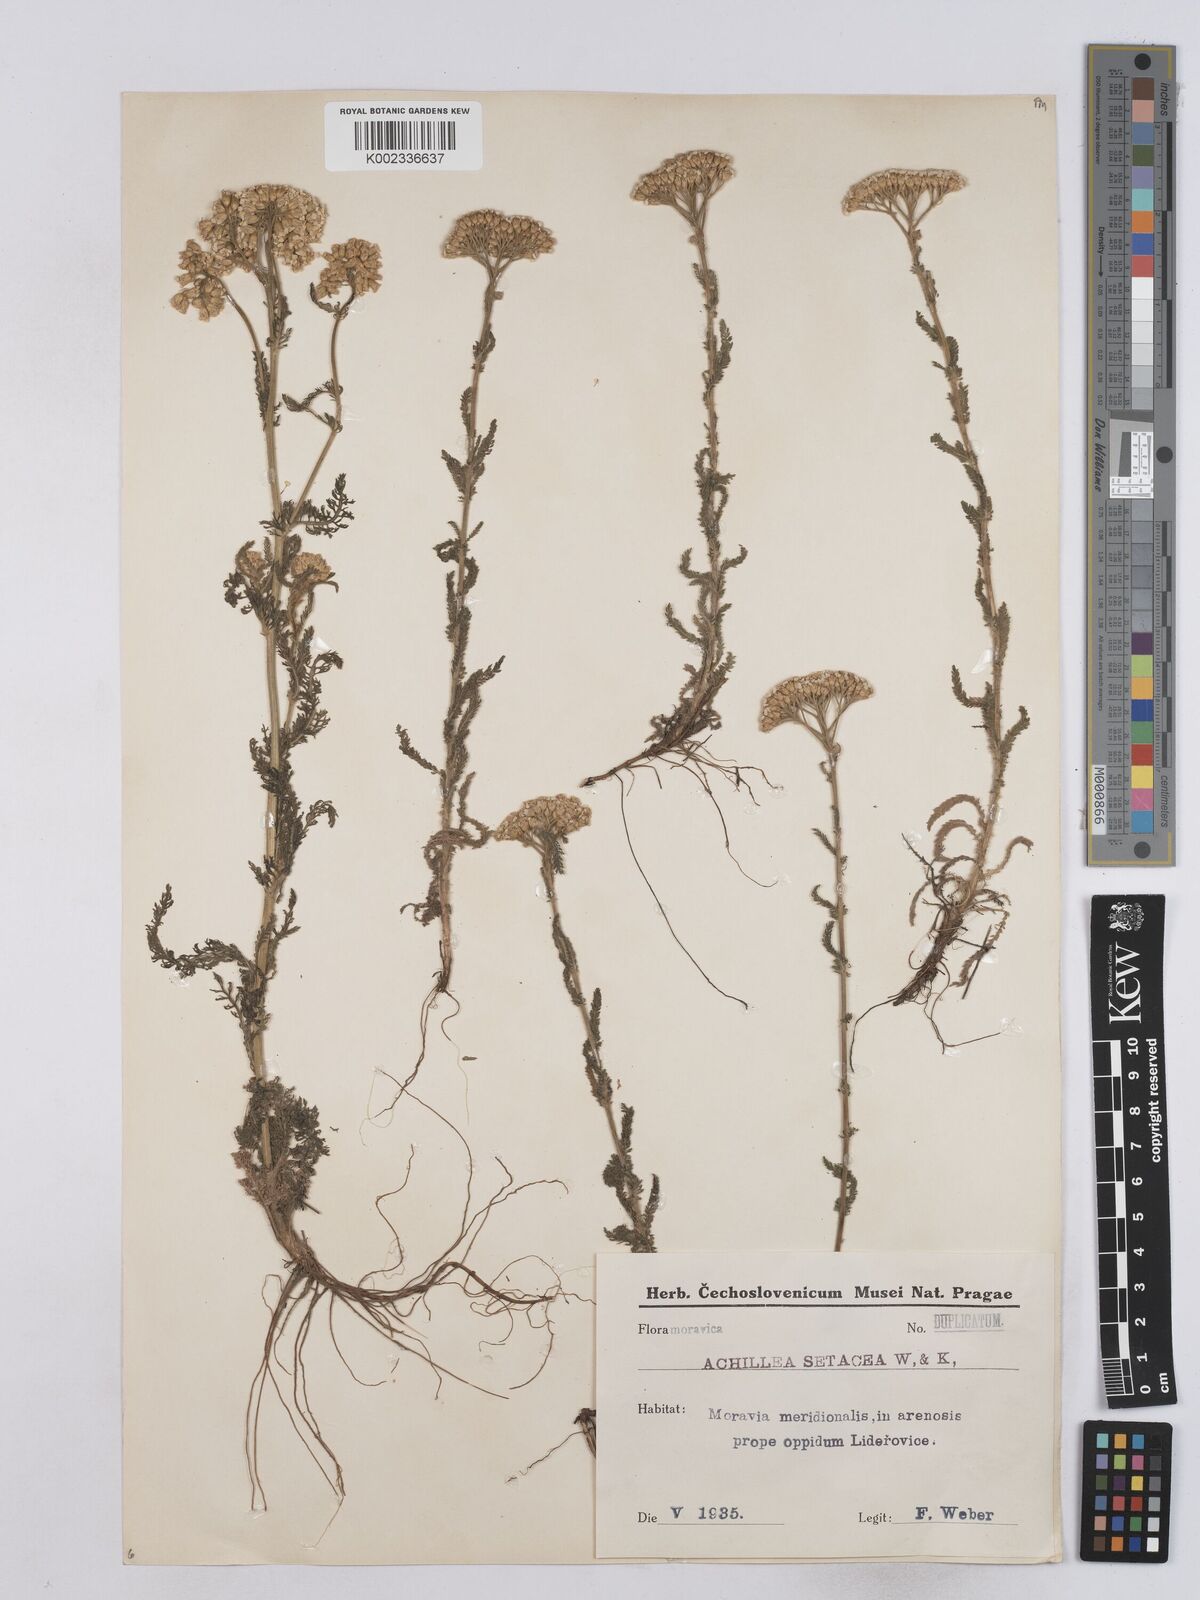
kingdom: Plantae
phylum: Tracheophyta
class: Magnoliopsida
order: Asterales
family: Asteraceae
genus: Achillea
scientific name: Achillea setacea
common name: Bristly yarrow
